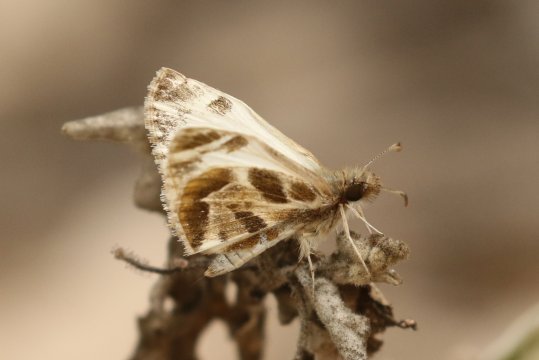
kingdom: Animalia
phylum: Arthropoda
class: Insecta
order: Lepidoptera
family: Hesperiidae
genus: Heliopetes
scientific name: Heliopetes macaira
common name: Turk's-cap White-Skipper
